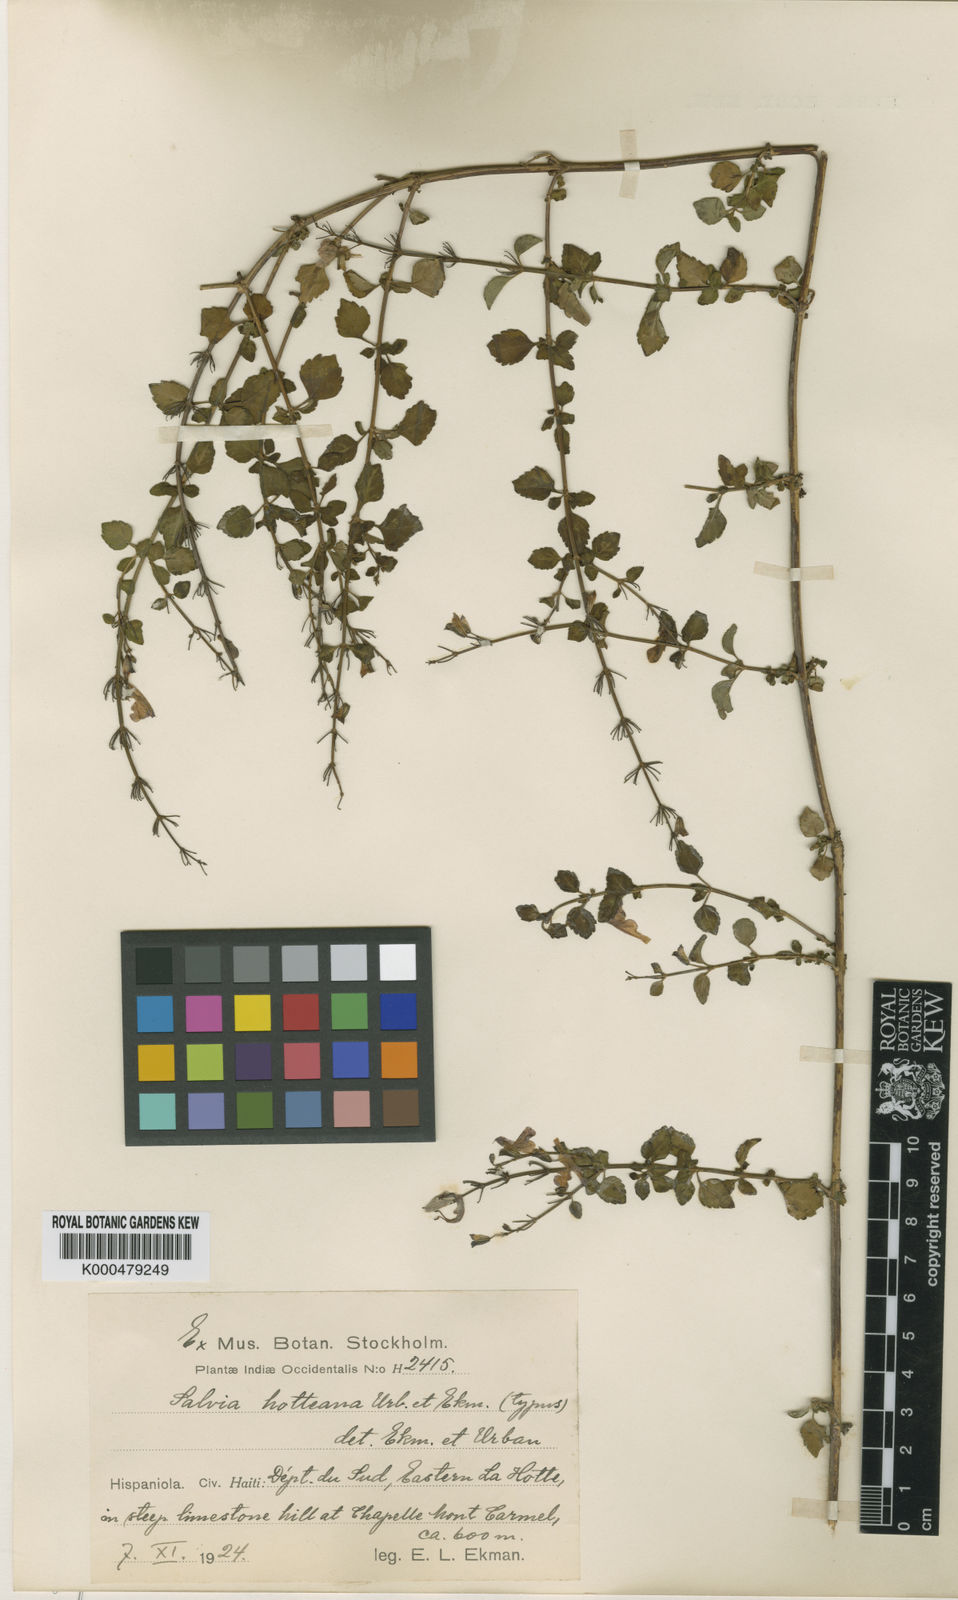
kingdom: Plantae
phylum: Tracheophyta
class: Magnoliopsida
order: Lamiales
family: Lamiaceae
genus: Salvia
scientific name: Salvia hotteana
